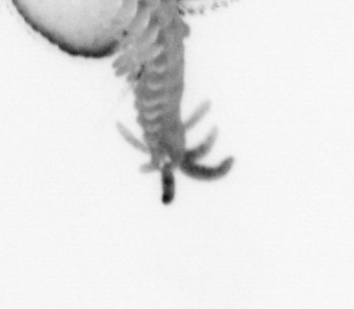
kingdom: Animalia
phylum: Annelida
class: Polychaeta
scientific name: Polychaeta
